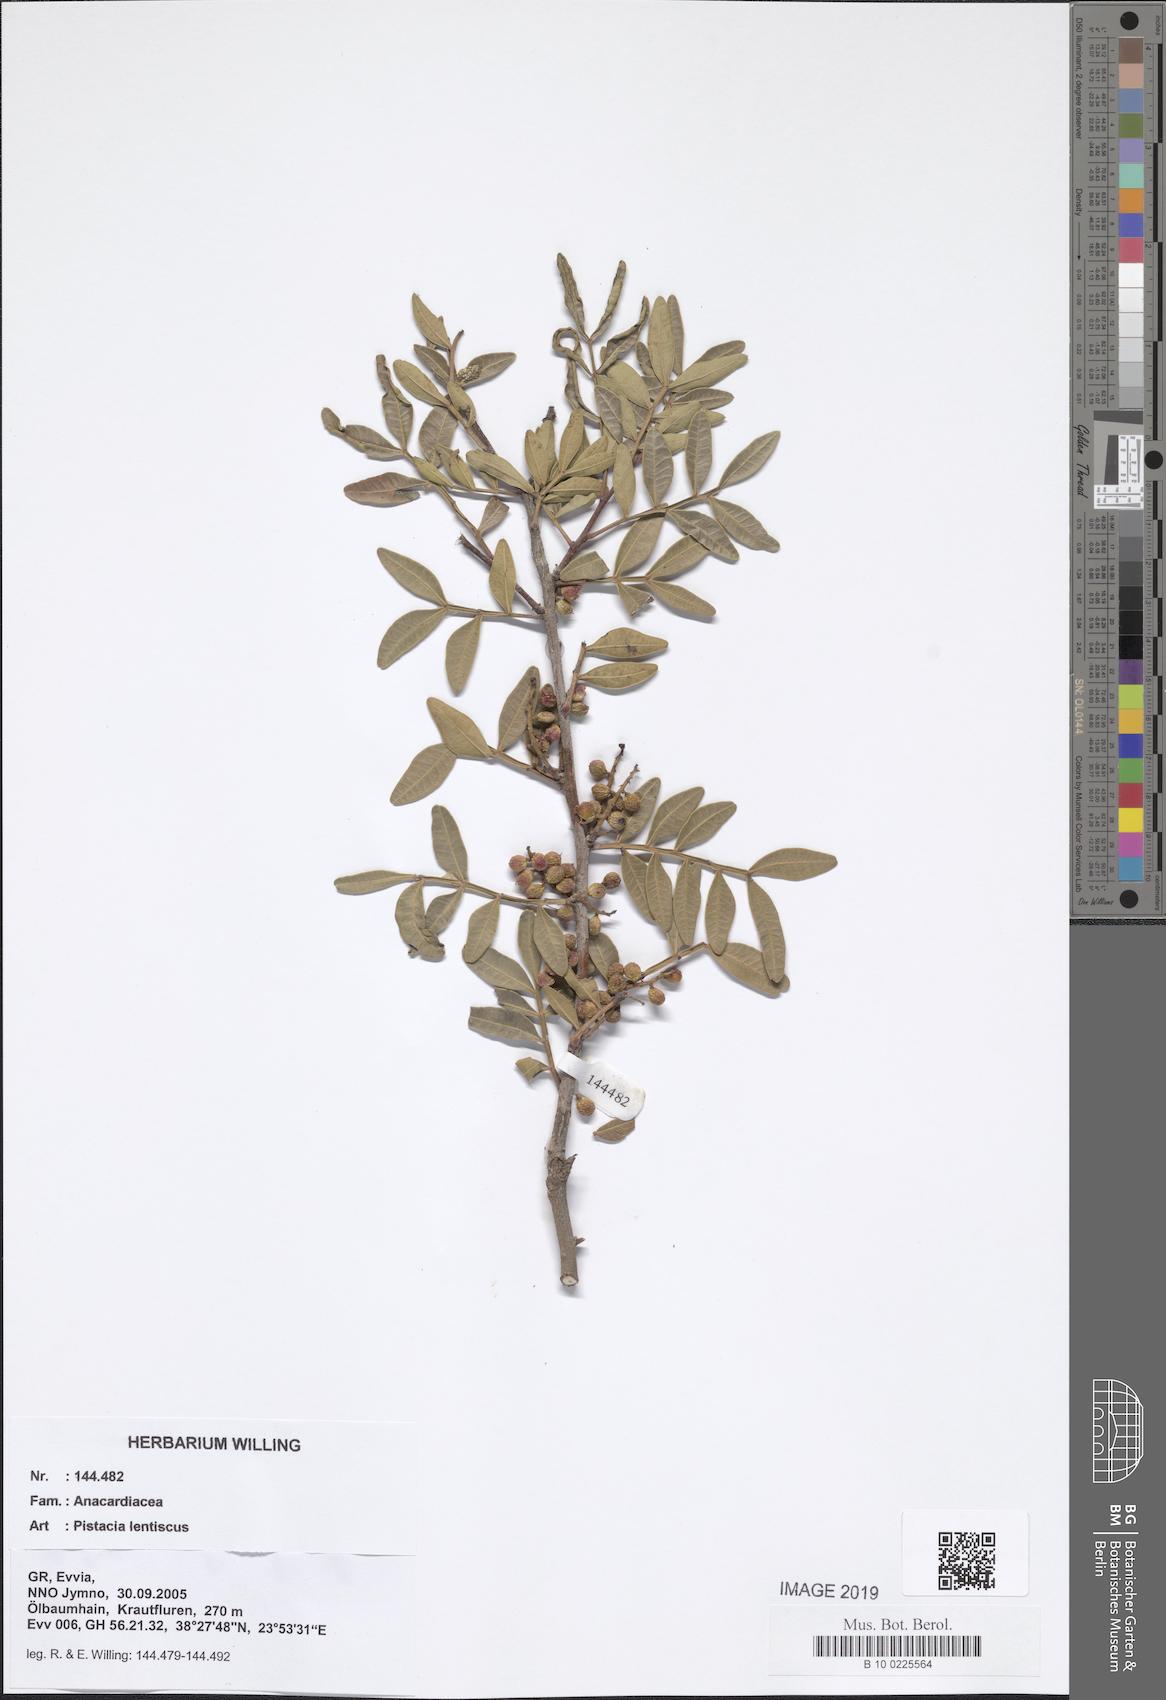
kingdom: Plantae
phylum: Tracheophyta
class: Magnoliopsida
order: Sapindales
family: Anacardiaceae
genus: Pistacia
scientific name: Pistacia lentiscus
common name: Lentisk
